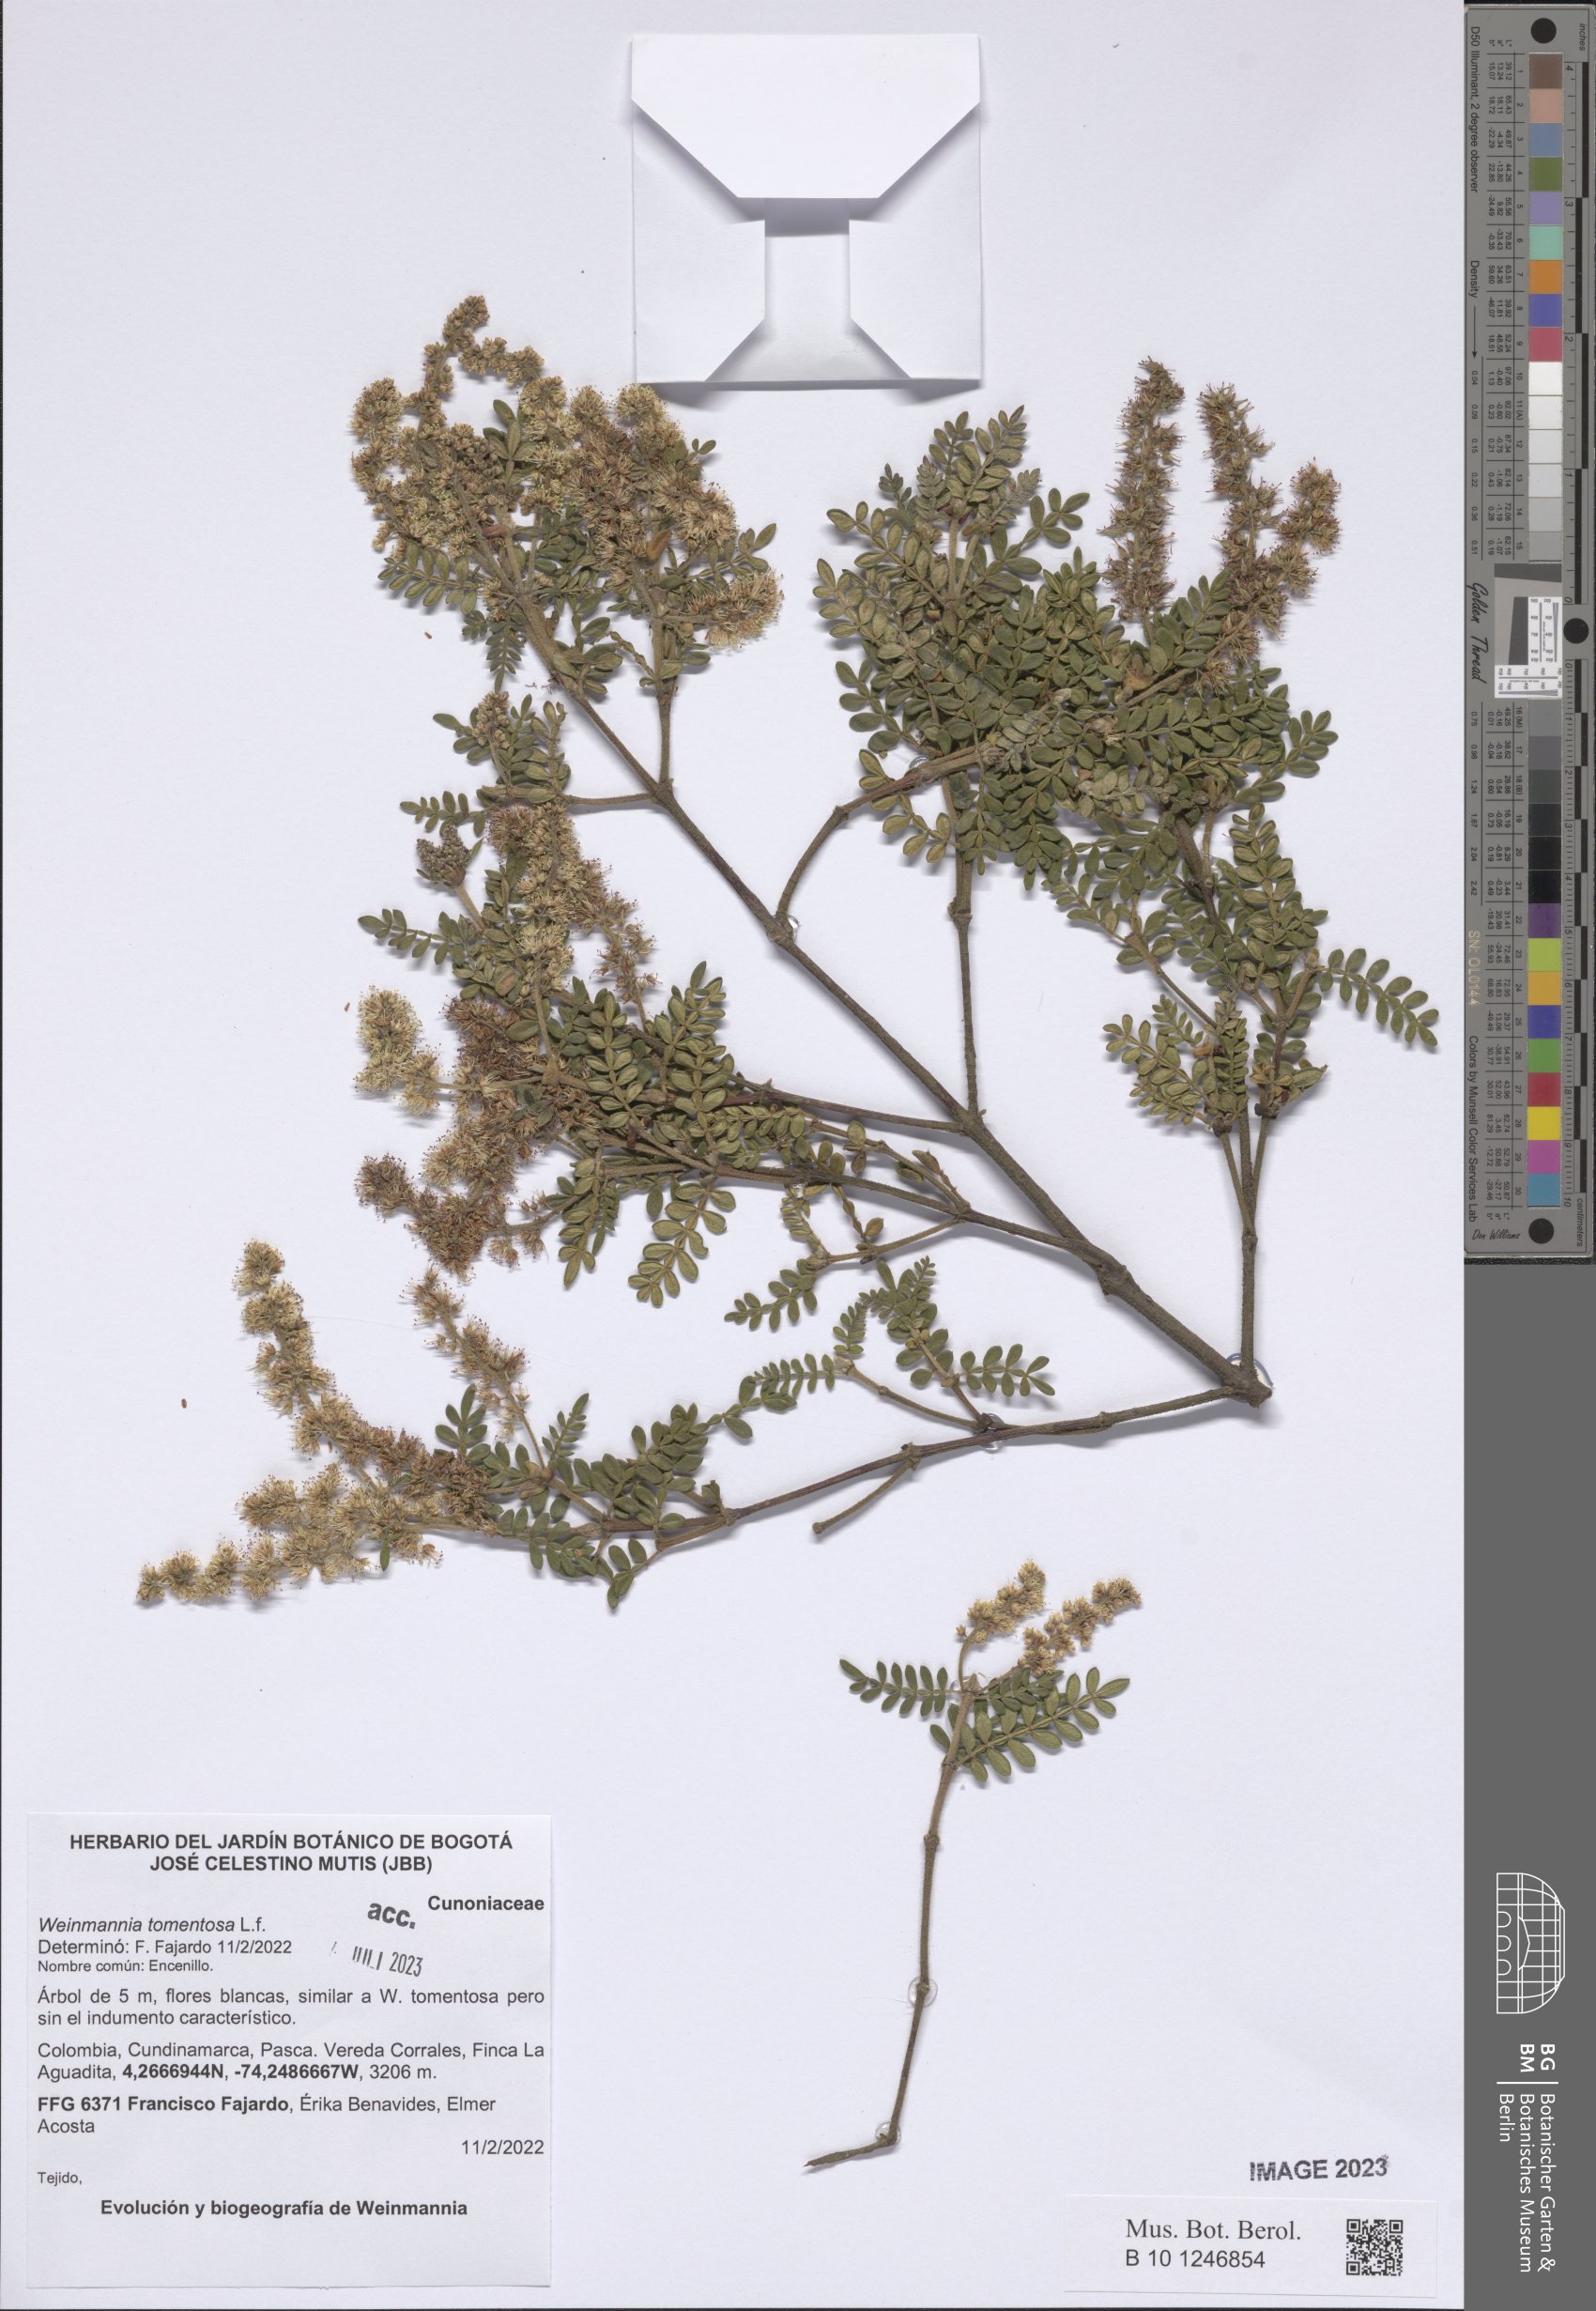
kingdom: Plantae
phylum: Tracheophyta
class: Magnoliopsida
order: Oxalidales
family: Cunoniaceae
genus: Weinmannia
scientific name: Weinmannia tomentosa
